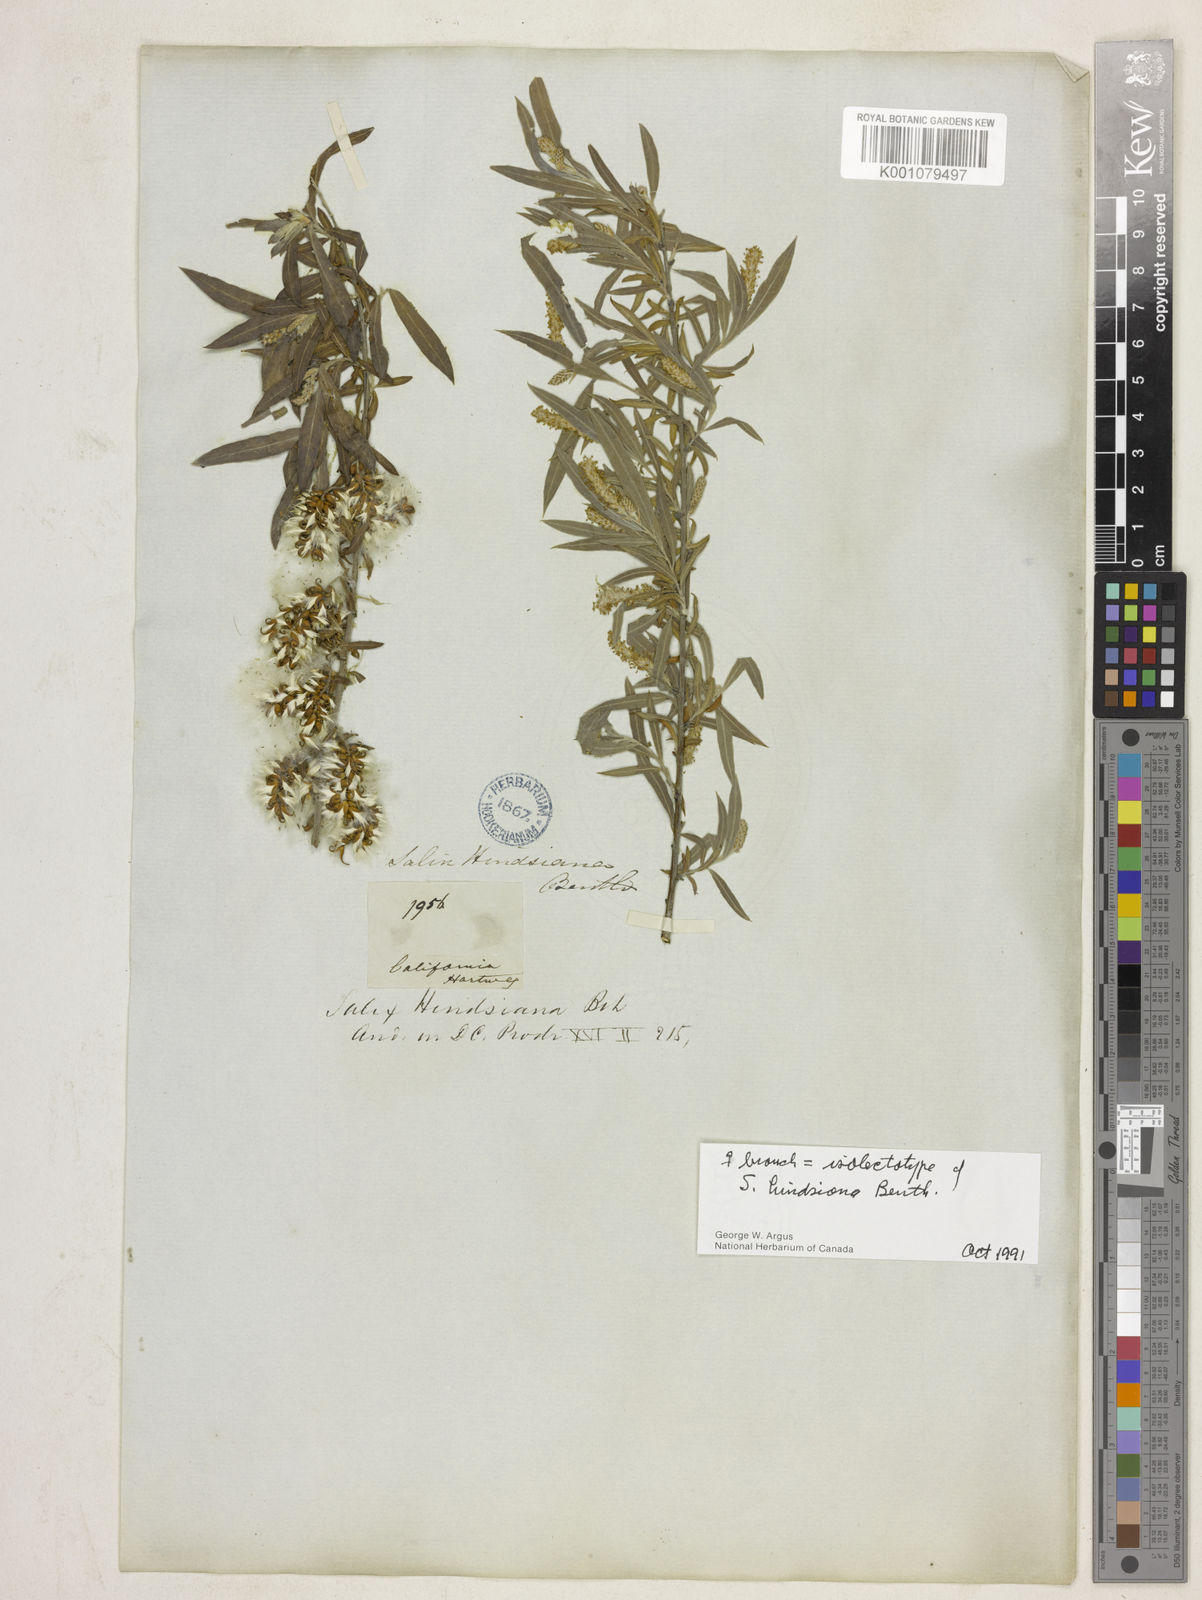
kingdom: Plantae
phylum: Tracheophyta
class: Magnoliopsida
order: Malpighiales
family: Salicaceae
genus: Salix
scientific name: Salix exigua
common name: Coyote willow
